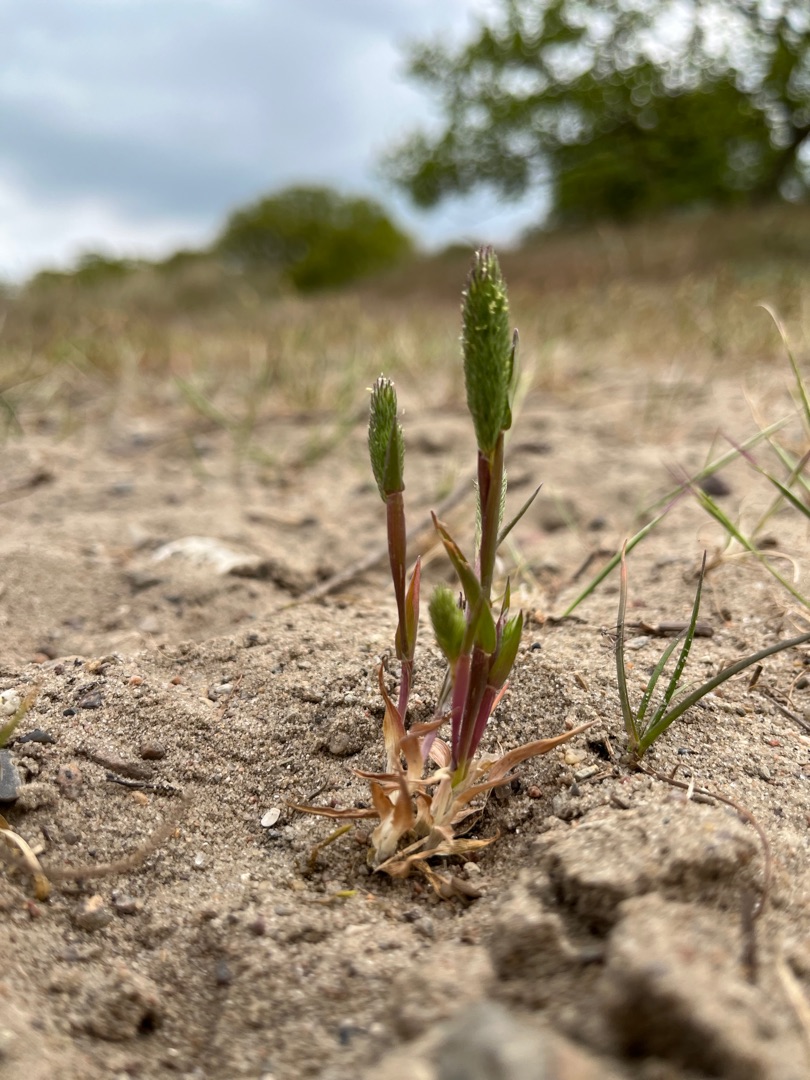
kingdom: Plantae
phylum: Tracheophyta
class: Liliopsida
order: Poales
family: Poaceae
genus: Phleum
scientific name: Phleum arenarium
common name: Sand-rottehale
